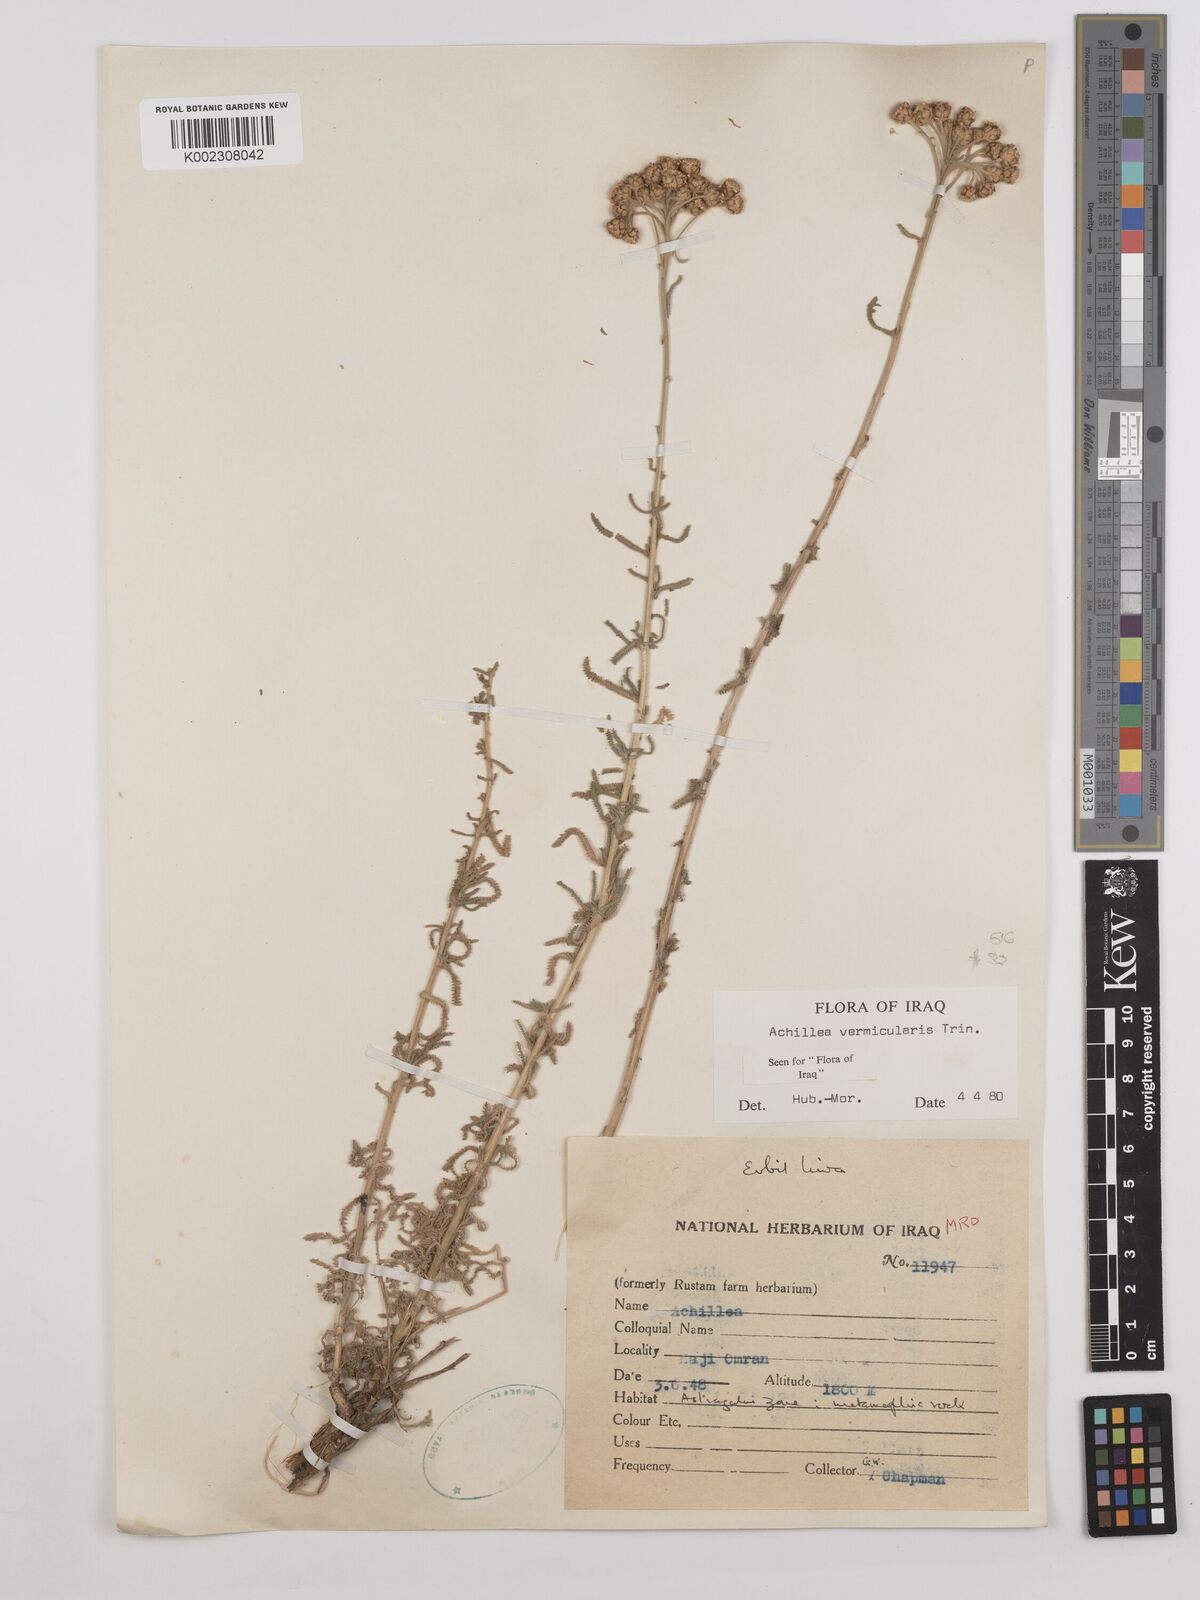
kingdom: Plantae
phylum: Tracheophyta
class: Magnoliopsida
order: Asterales
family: Asteraceae
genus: Achillea
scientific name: Achillea vermicularis
